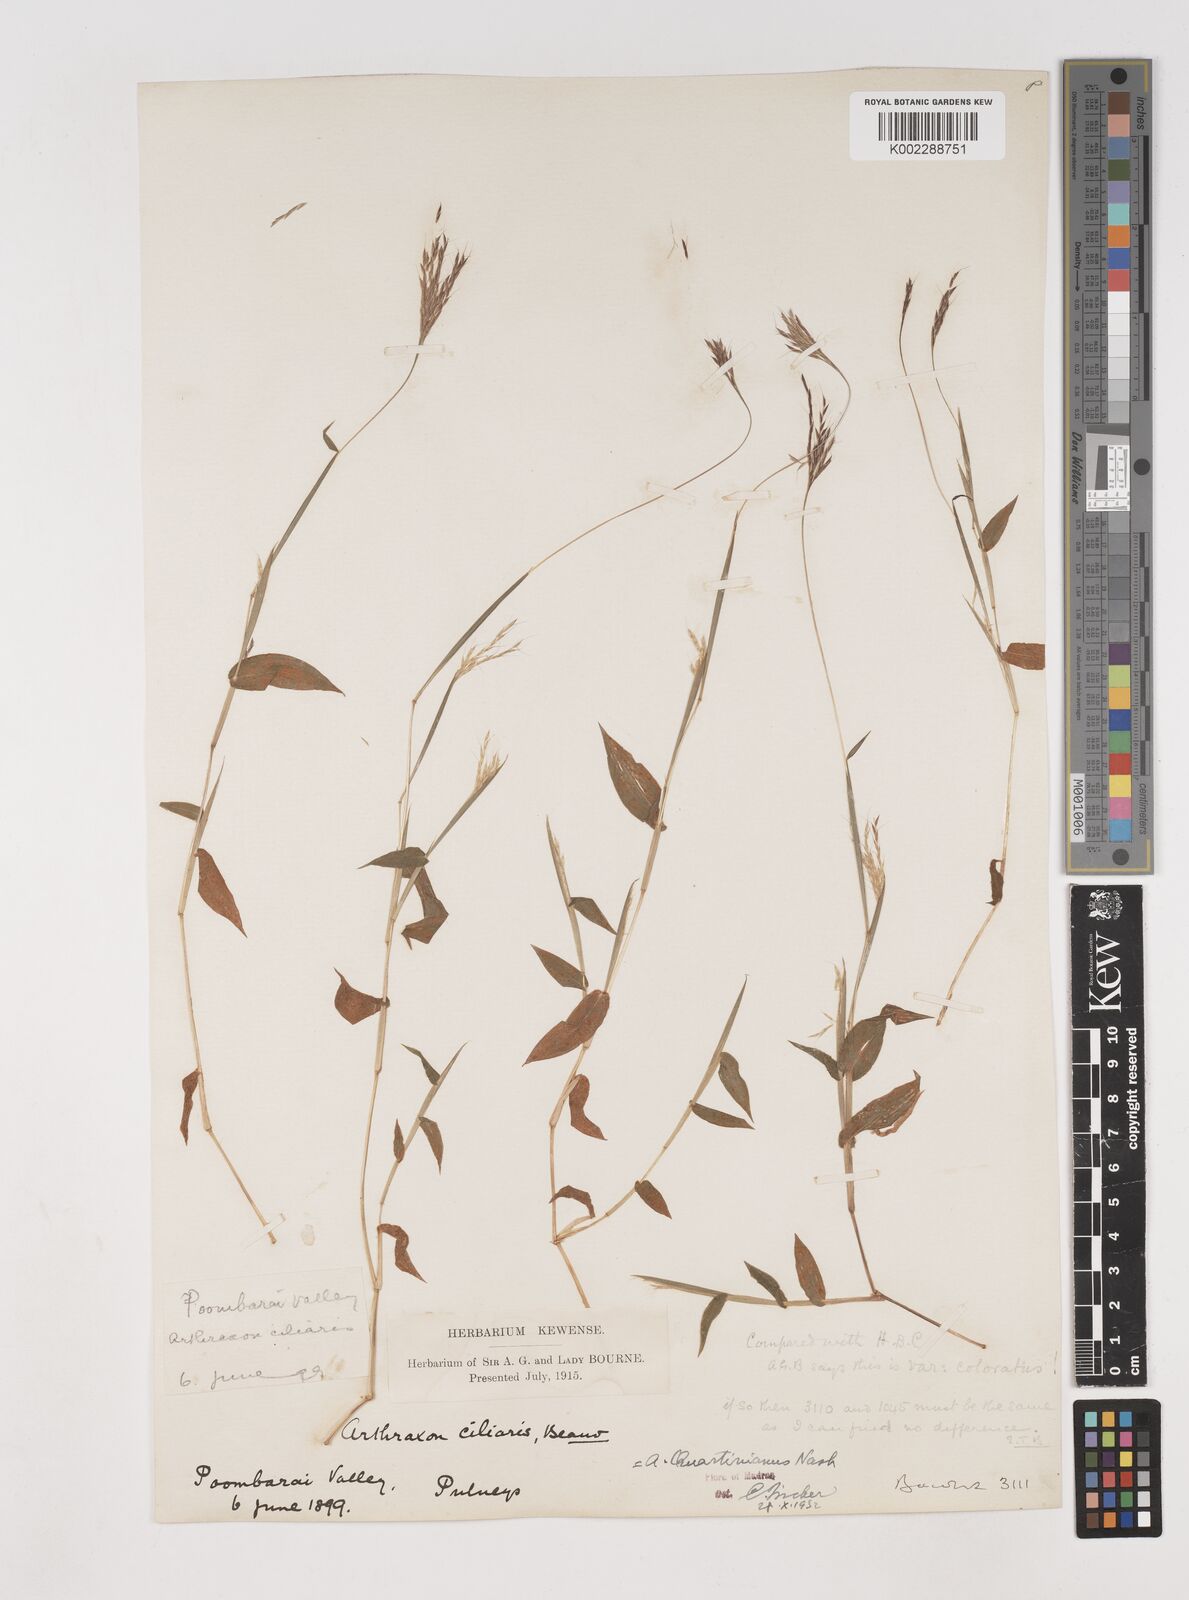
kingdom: Plantae
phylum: Tracheophyta
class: Liliopsida
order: Poales
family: Poaceae
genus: Arthraxon
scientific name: Arthraxon hispidus
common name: Small carpgrass
